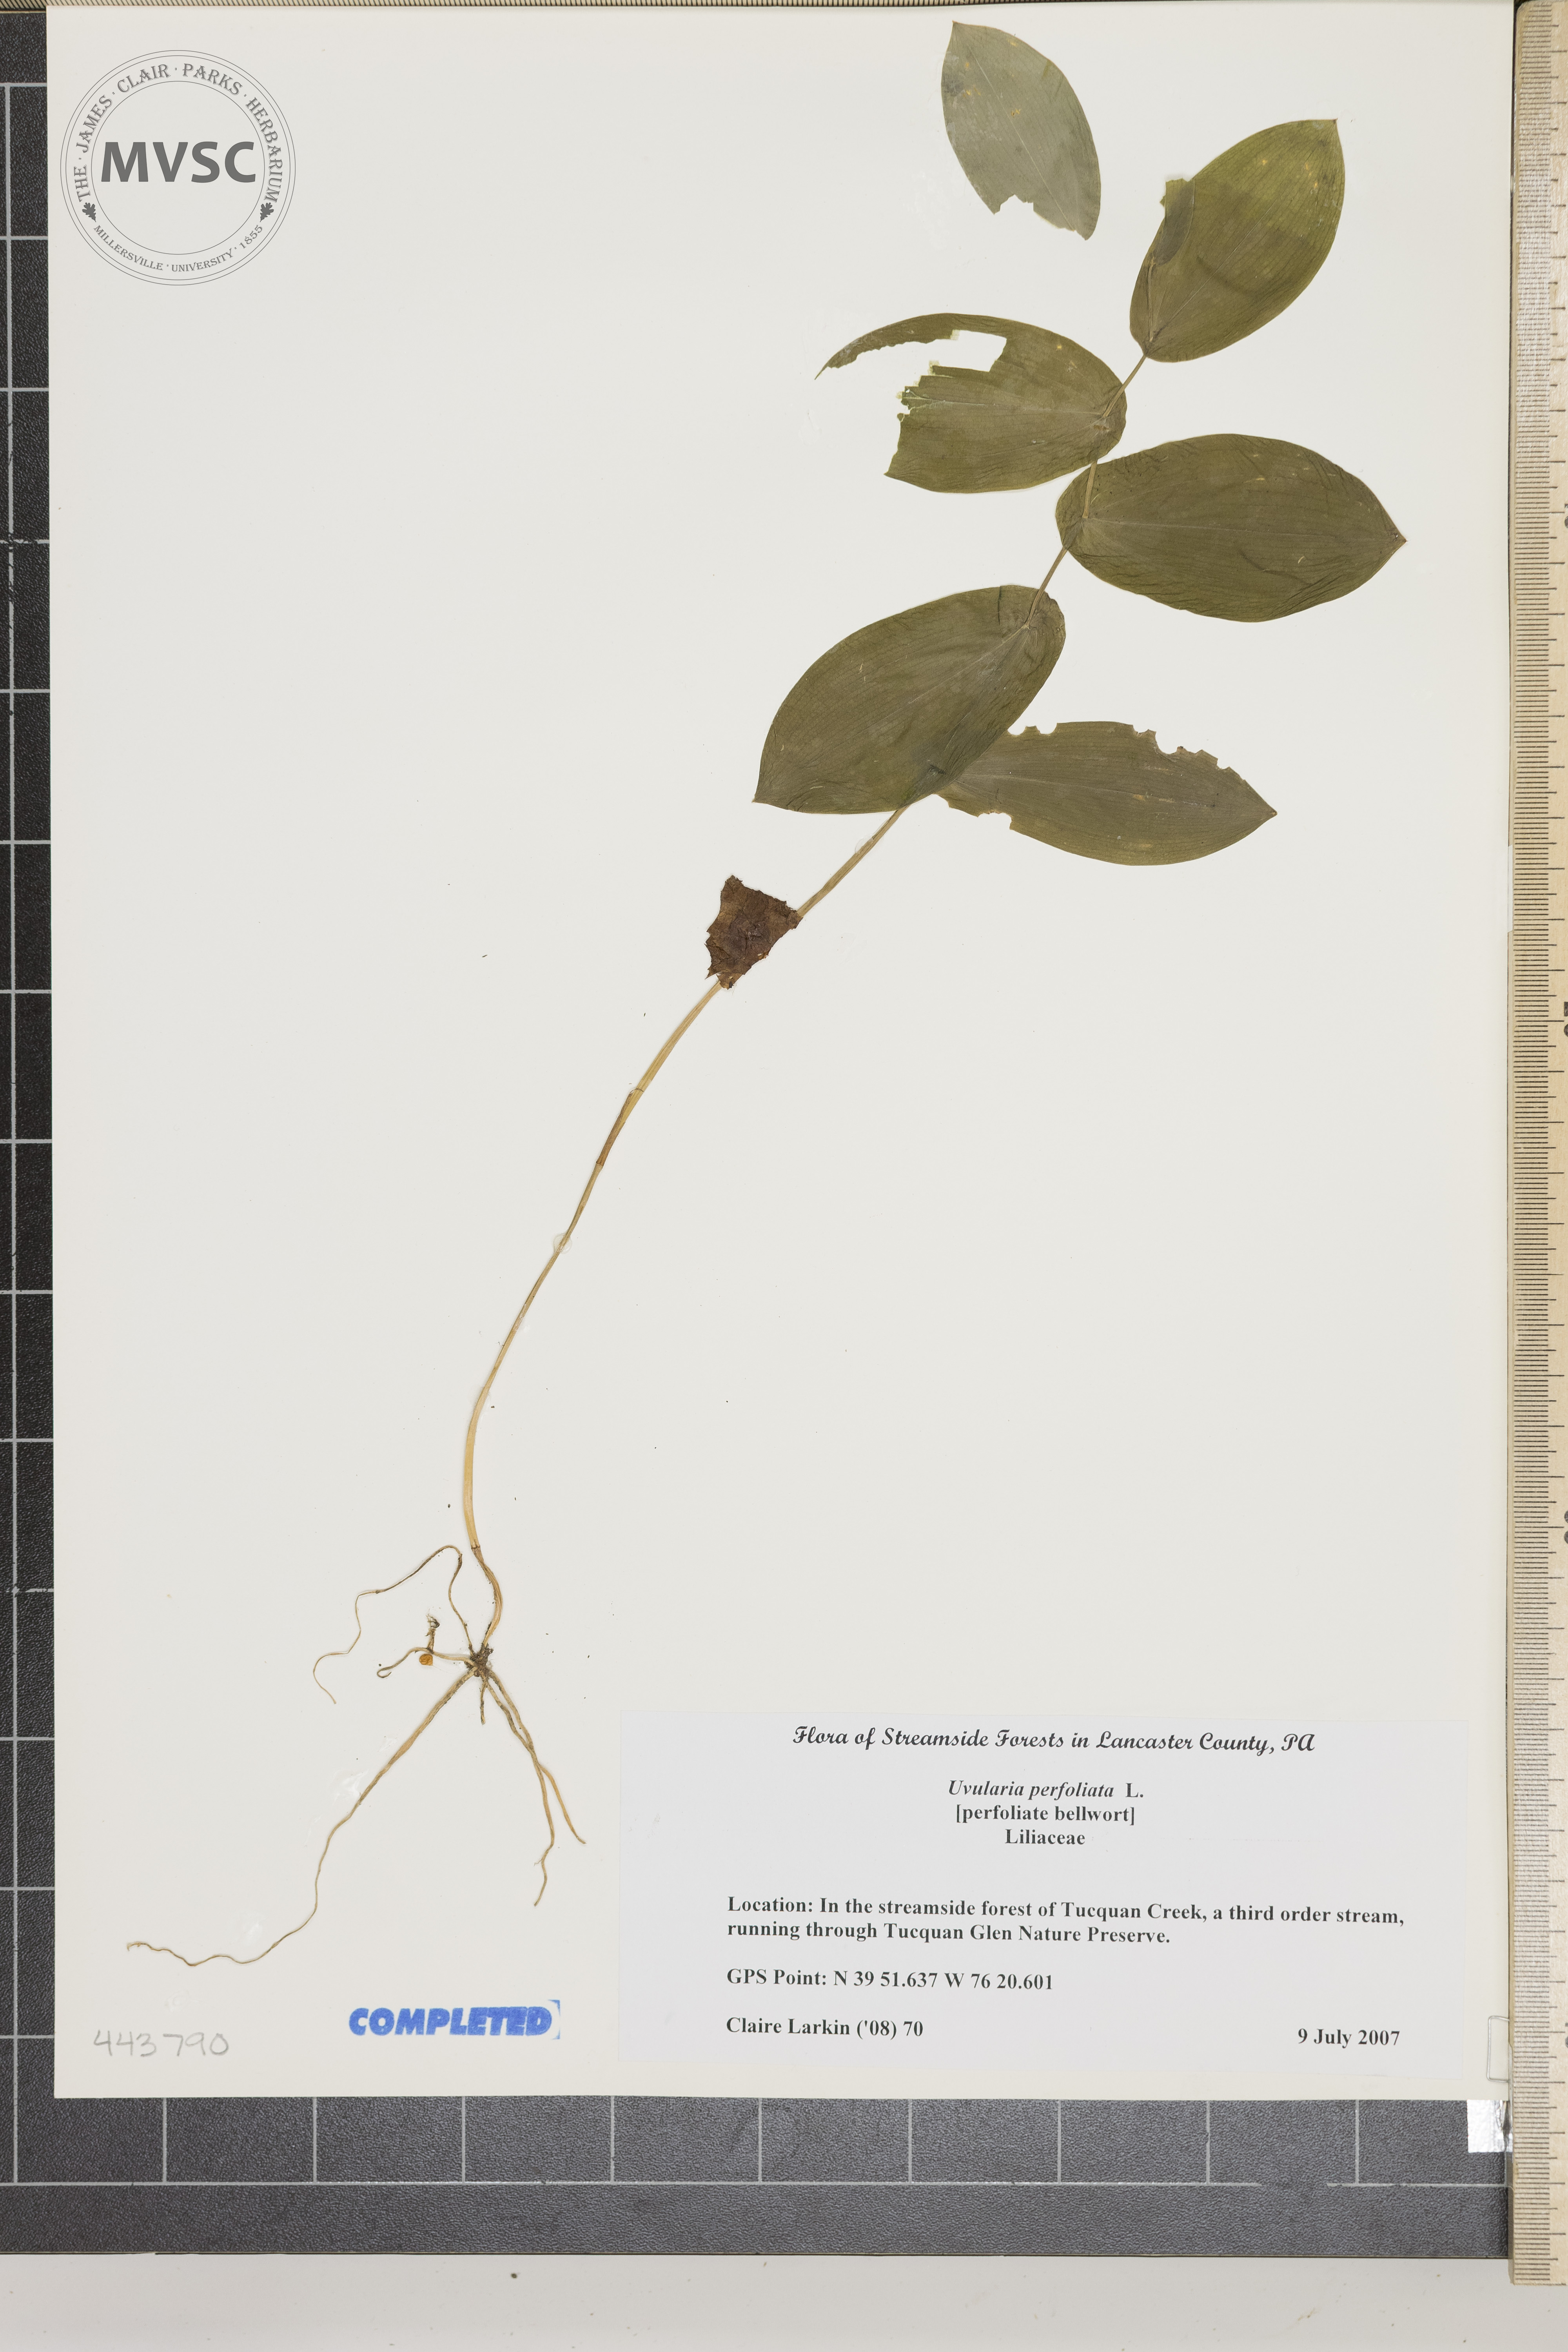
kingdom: Plantae
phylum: Tracheophyta
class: Liliopsida
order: Liliales
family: Colchicaceae
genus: Uvularia
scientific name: Uvularia perfoliata
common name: Perfoliate Bellwort
